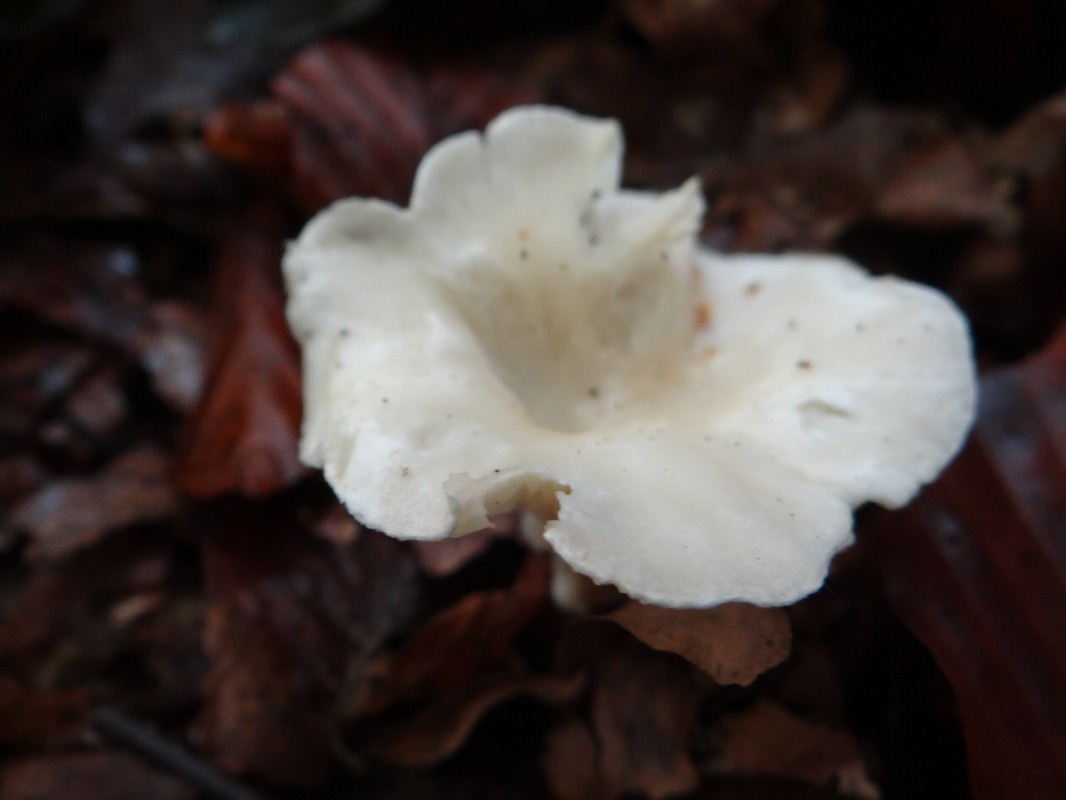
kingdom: Fungi
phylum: Basidiomycota
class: Agaricomycetes
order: Agaricales
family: Tricholomataceae
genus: Clitocybe
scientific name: Clitocybe
